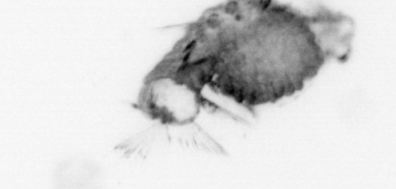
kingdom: Animalia
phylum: Annelida
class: Polychaeta
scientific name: Polychaeta
